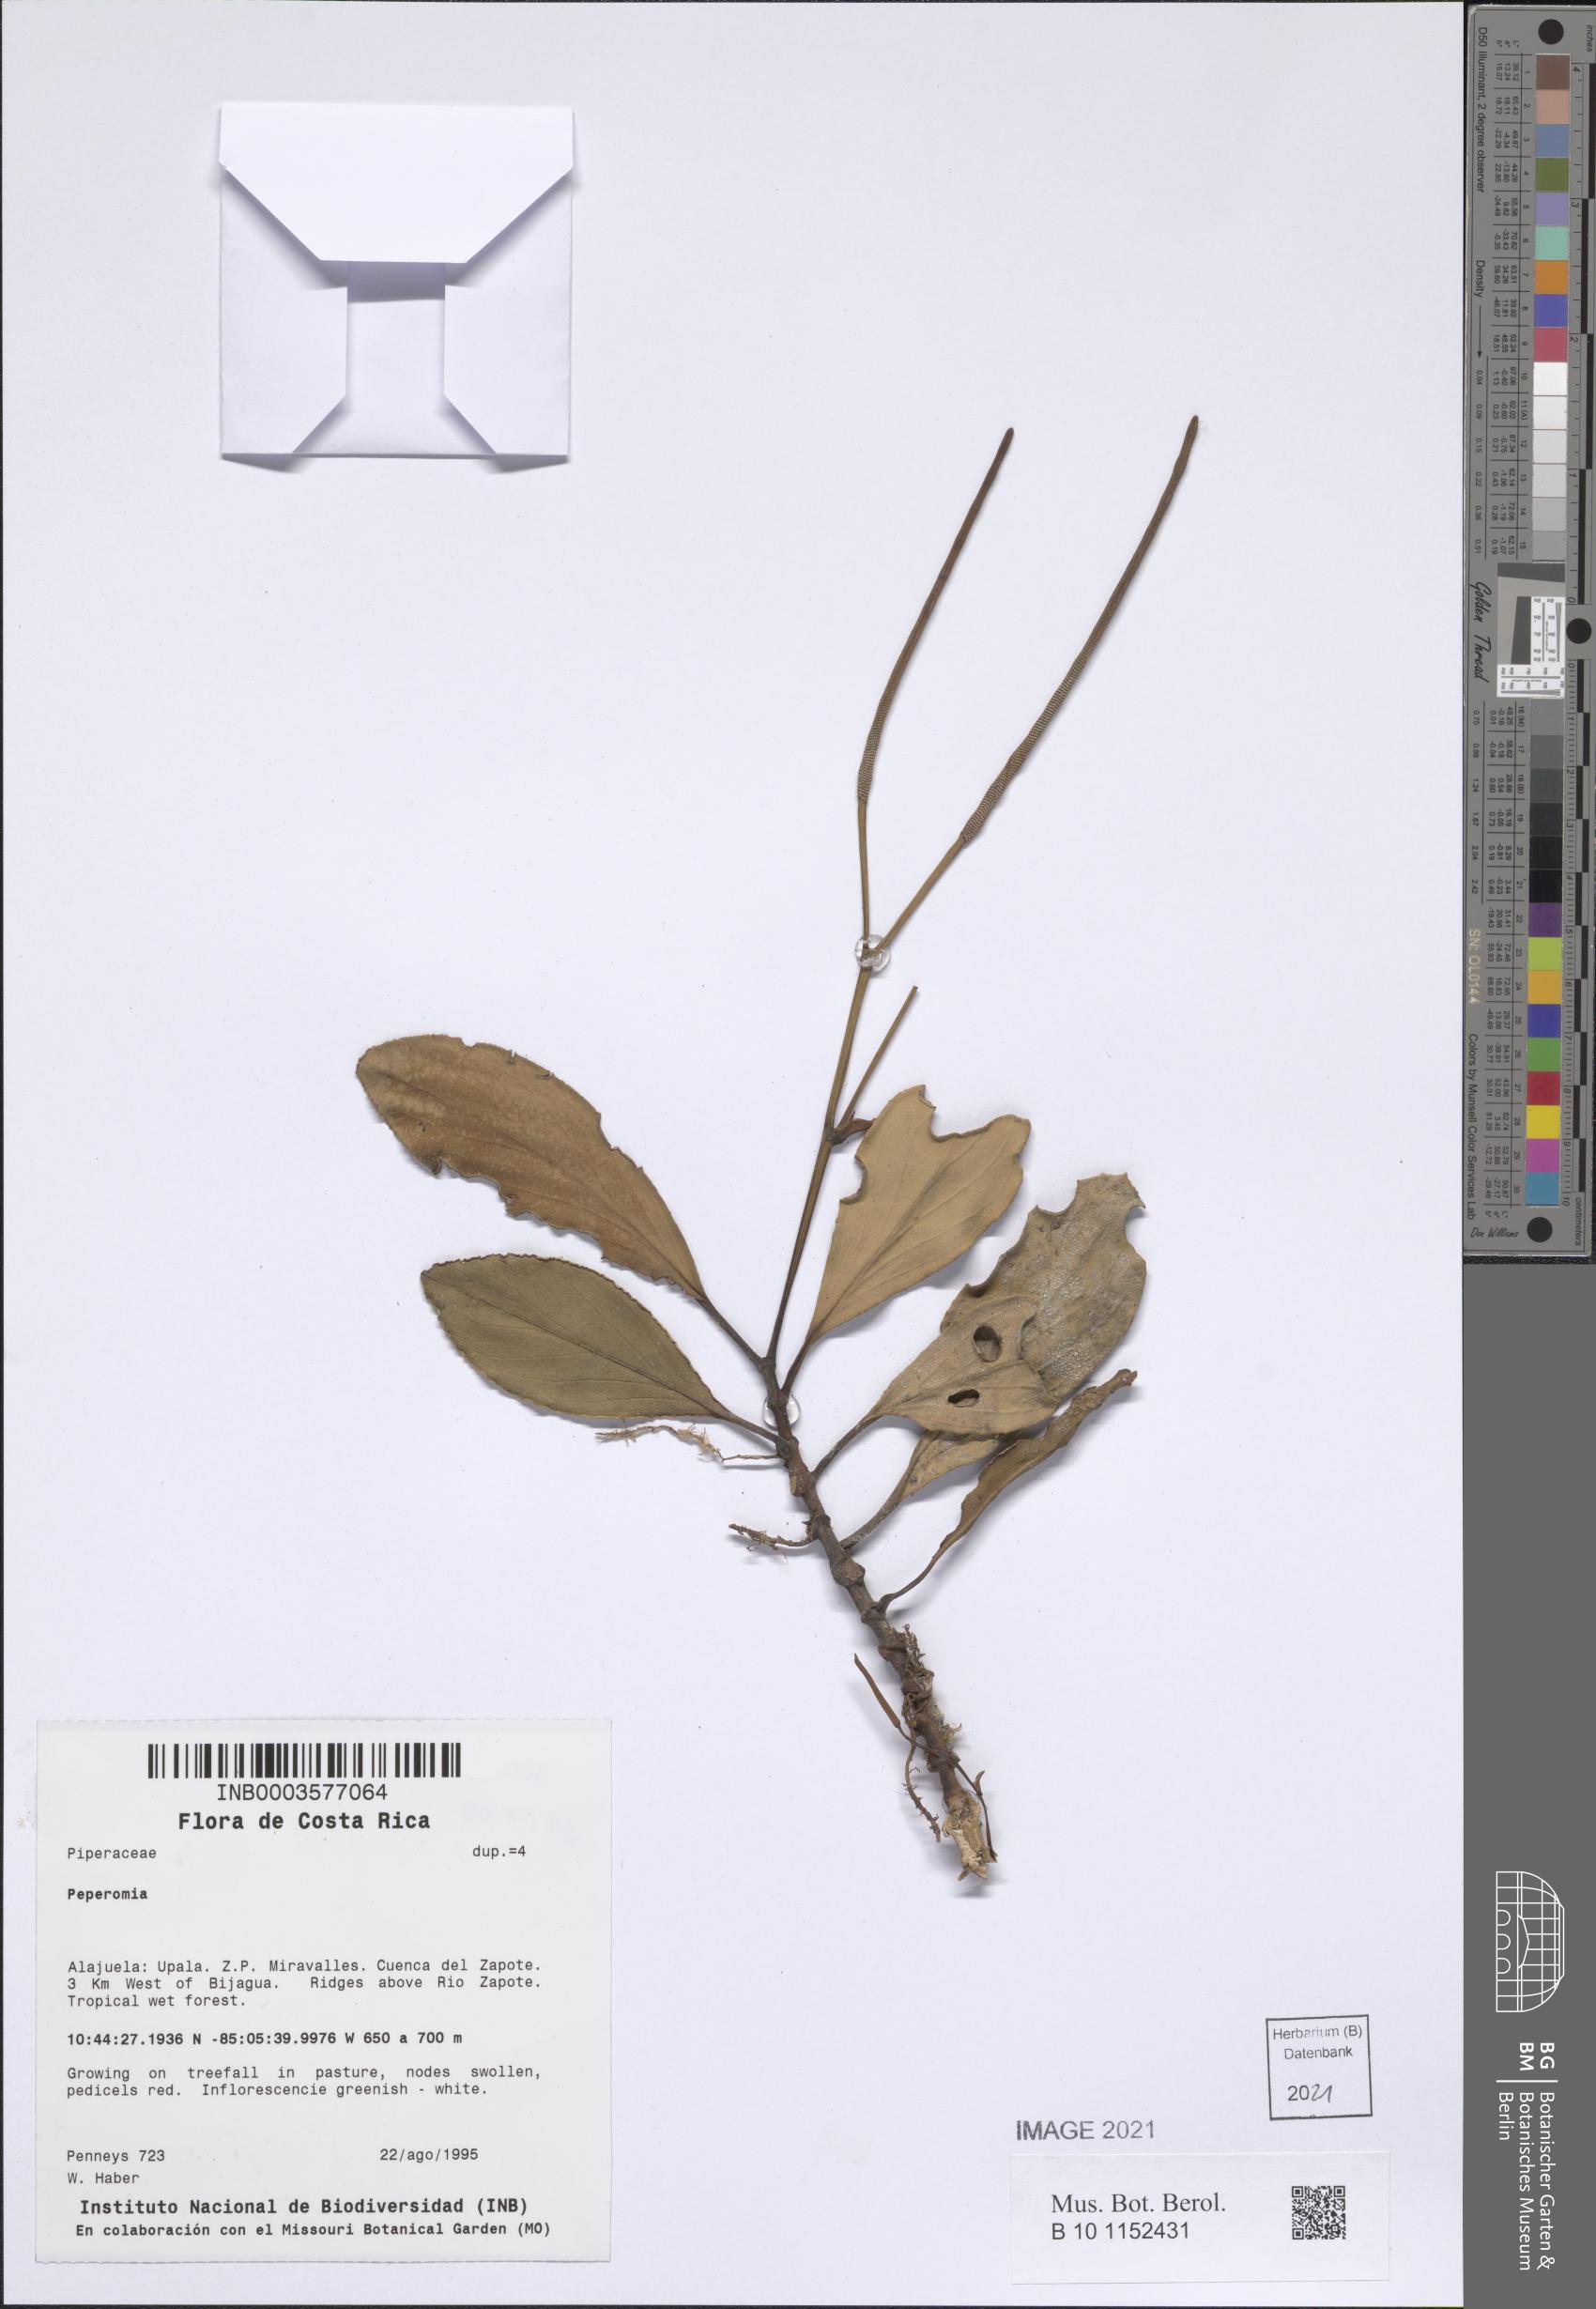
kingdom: Plantae
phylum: Tracheophyta
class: Magnoliopsida
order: Piperales
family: Piperaceae
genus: Peperomia
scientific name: Peperomia
